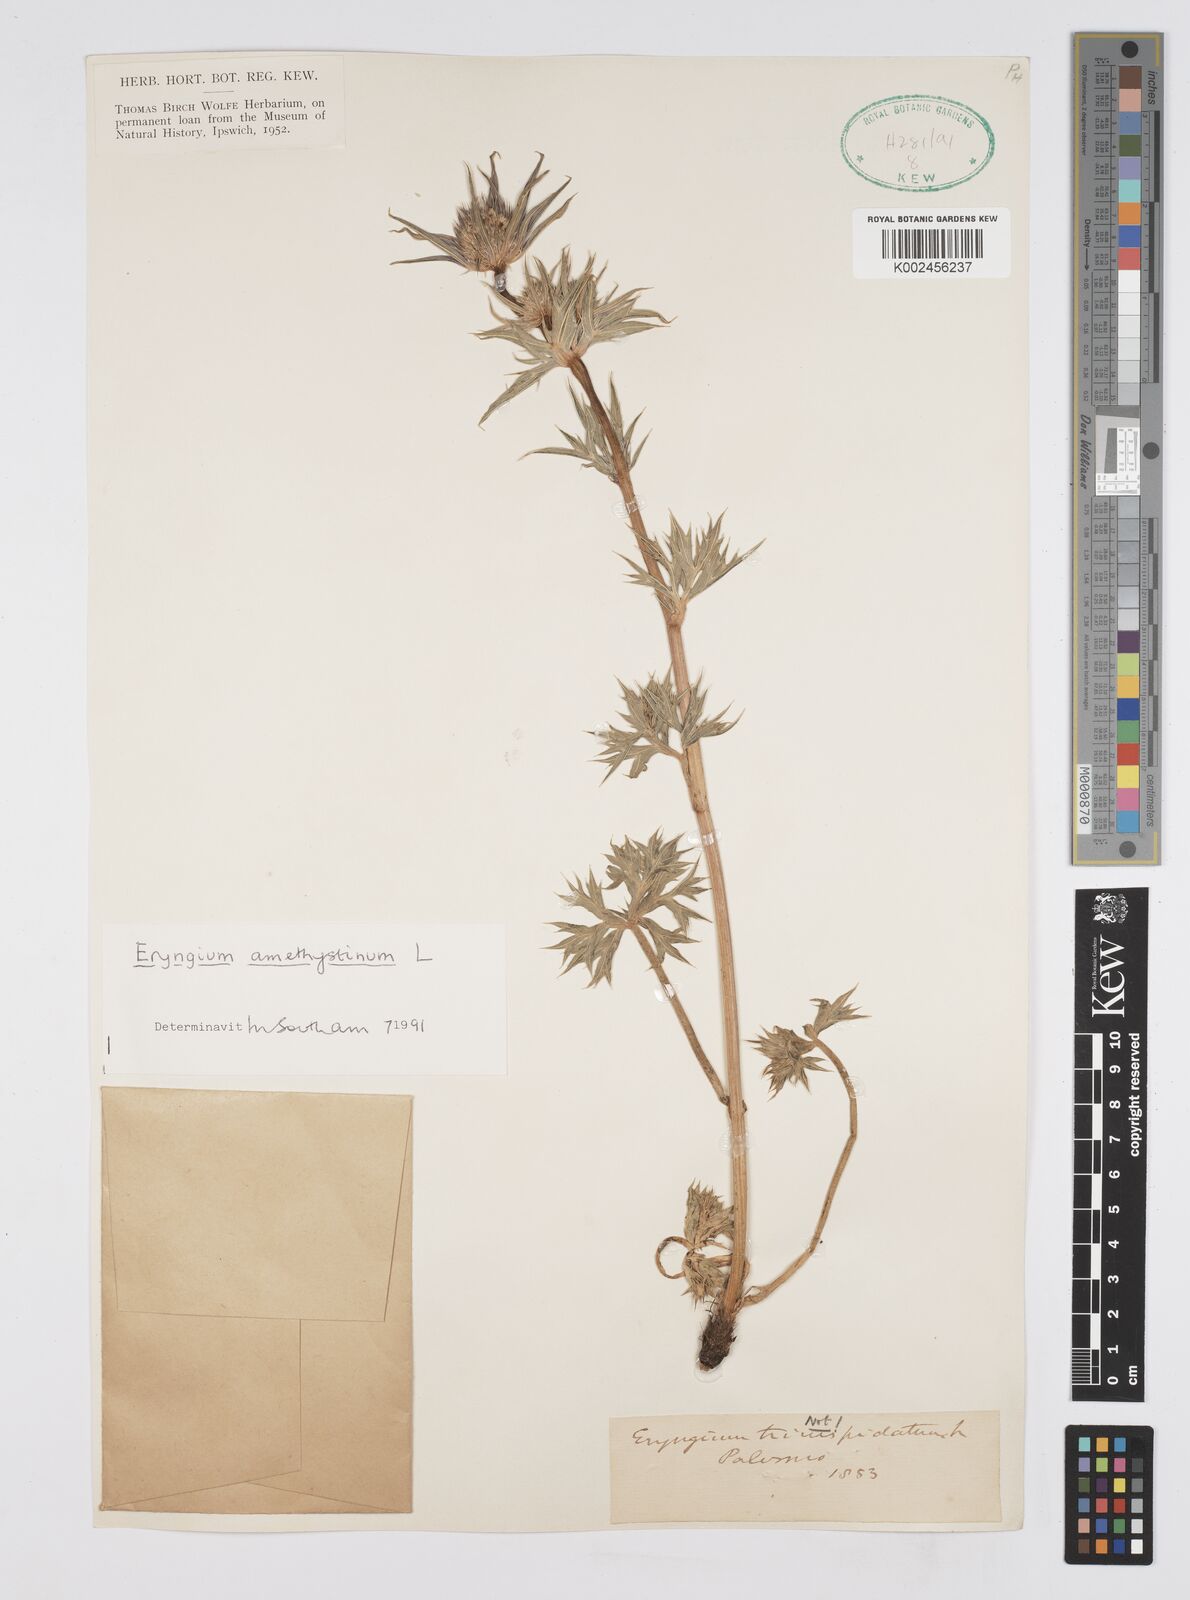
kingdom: Plantae
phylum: Tracheophyta
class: Magnoliopsida
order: Apiales
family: Apiaceae
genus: Eryngium
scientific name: Eryngium amethystinum
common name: Amethyst eryngo
